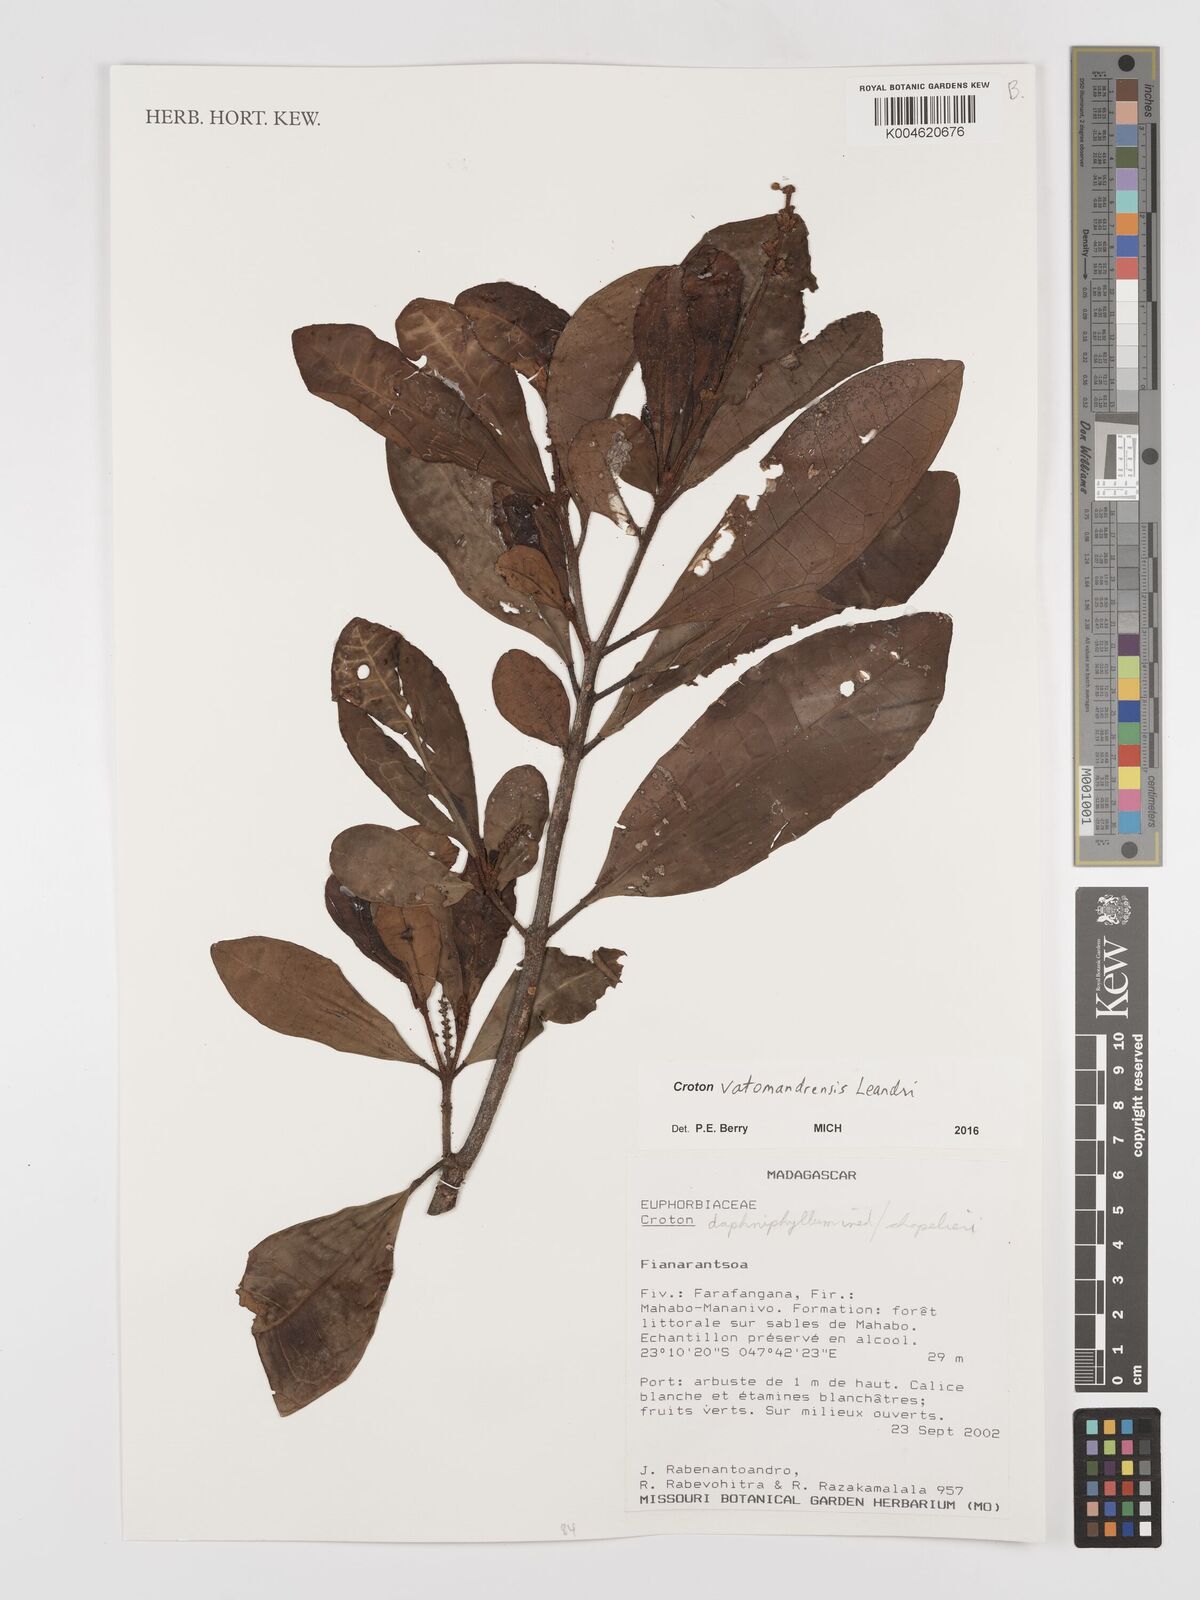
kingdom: Plantae
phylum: Tracheophyta
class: Magnoliopsida
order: Malpighiales
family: Euphorbiaceae
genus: Croton
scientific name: Croton vatomandrensis
